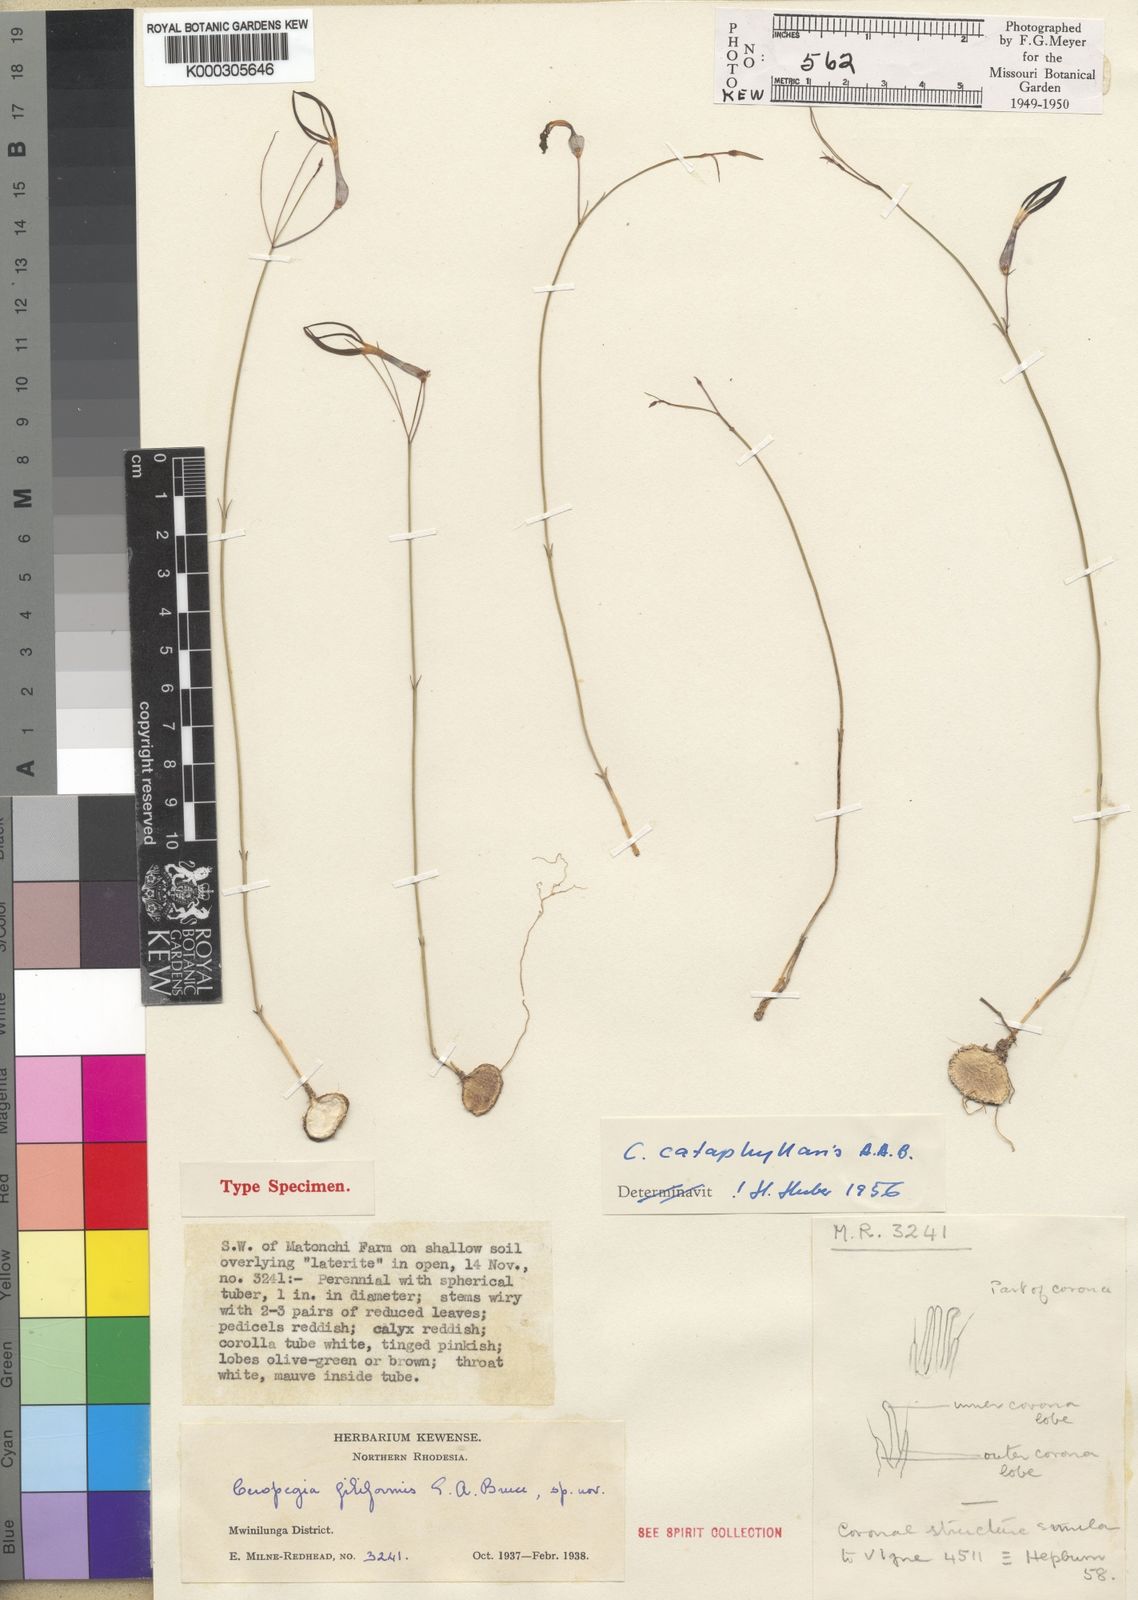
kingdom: Plantae
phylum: Tracheophyta
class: Magnoliopsida
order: Gentianales
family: Apocynaceae
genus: Ceropegia
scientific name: Ceropegia cataphyllaris
